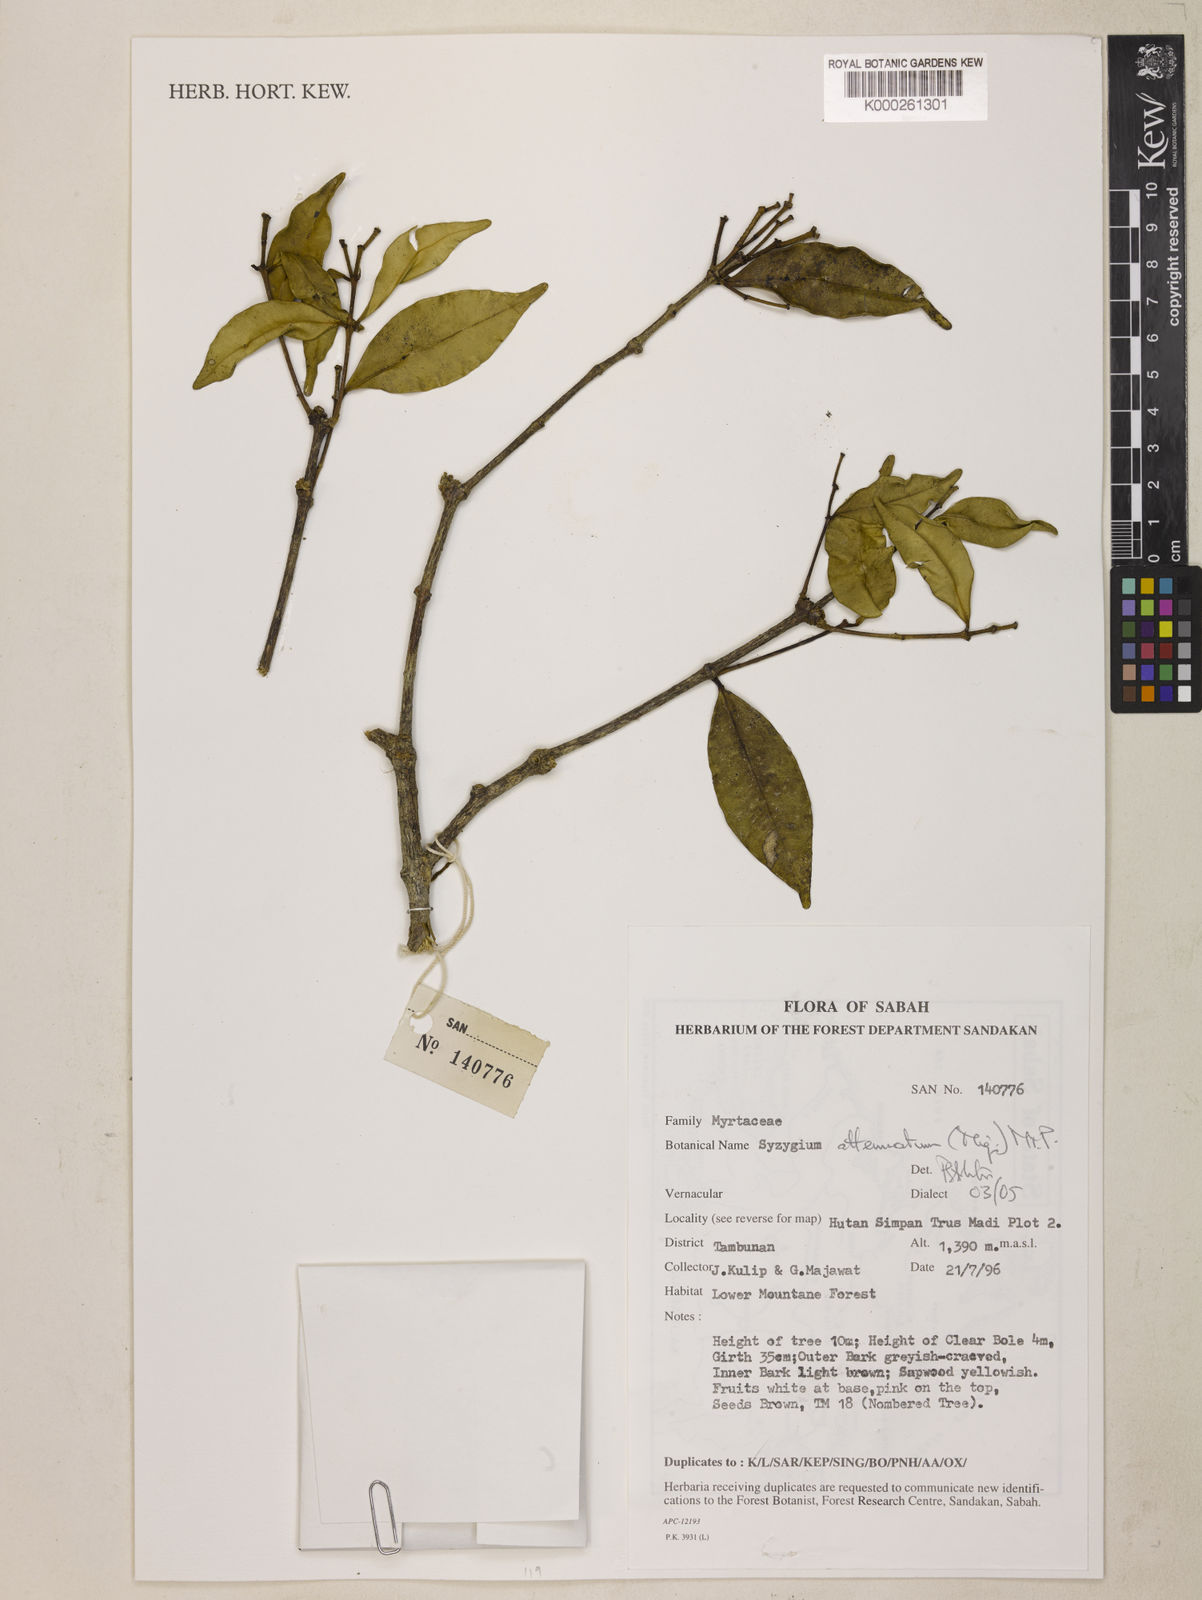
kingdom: Plantae
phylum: Tracheophyta
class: Magnoliopsida
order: Myrtales
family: Myrtaceae
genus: Syzygium
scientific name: Syzygium attenuatum
